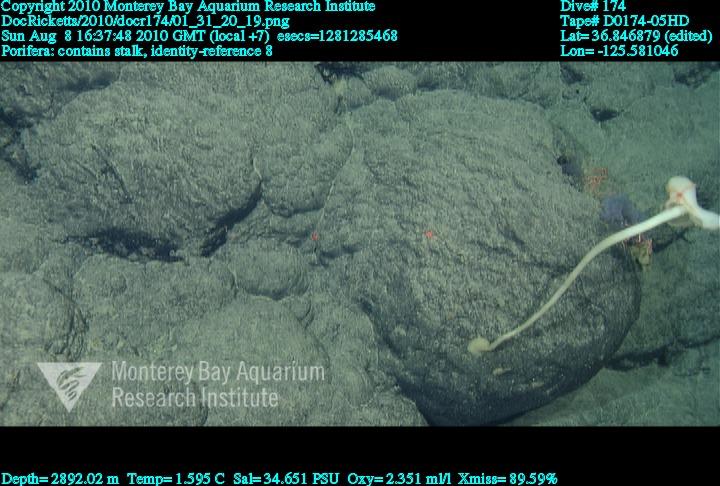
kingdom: Animalia
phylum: Porifera
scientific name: Porifera
